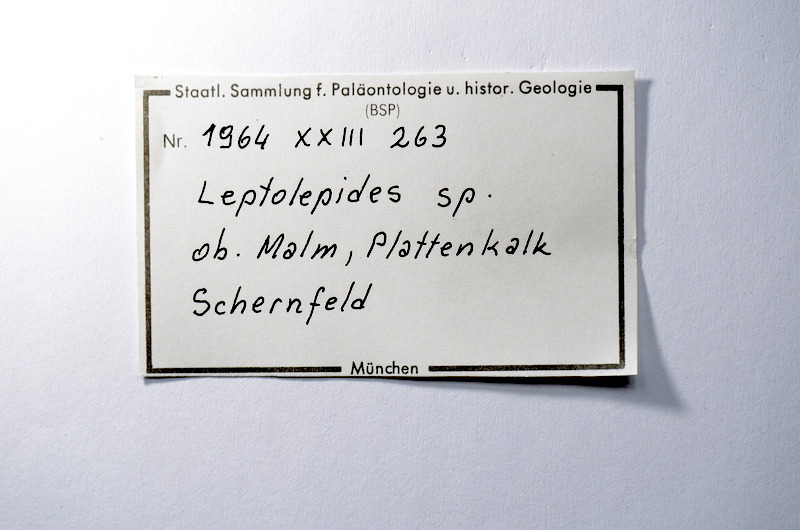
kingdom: Animalia
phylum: Chordata
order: Salmoniformes
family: Orthogonikleithridae
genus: Leptolepides
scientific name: Leptolepides
